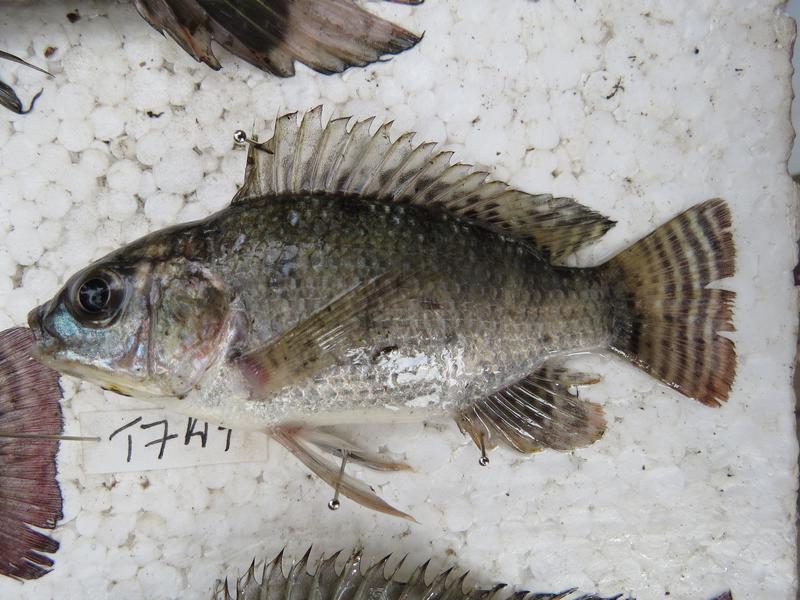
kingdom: Animalia
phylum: Chordata
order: Perciformes
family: Cichlidae
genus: Oreochromis
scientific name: Oreochromis niloticus
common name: Nile tilapia
